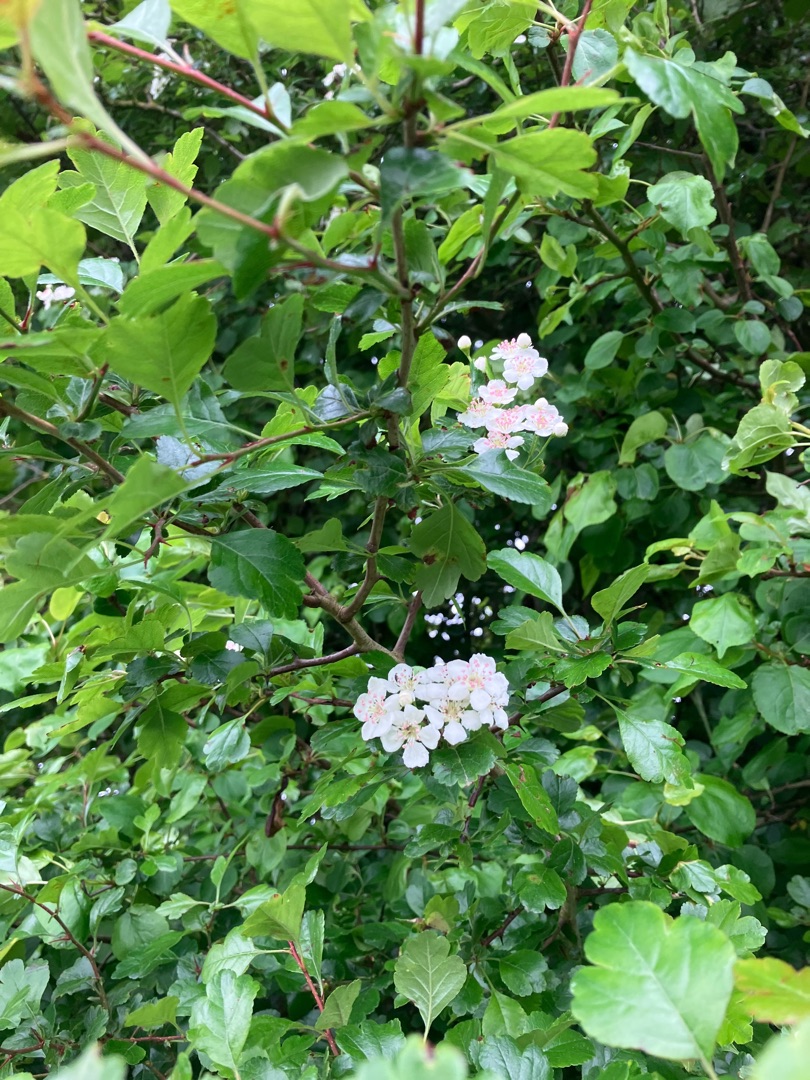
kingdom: Plantae
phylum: Tracheophyta
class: Magnoliopsida
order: Rosales
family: Rosaceae
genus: Crataegus
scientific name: Crataegus monogyna
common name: Engriflet hvidtjørn
